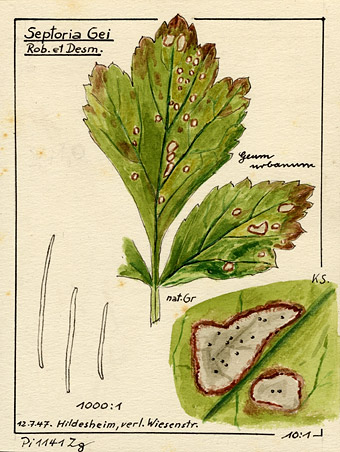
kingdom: Fungi
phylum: Ascomycota
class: Dothideomycetes
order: Mycosphaerellales
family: Mycosphaerellaceae
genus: Sphaerulina
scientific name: Sphaerulina gei
